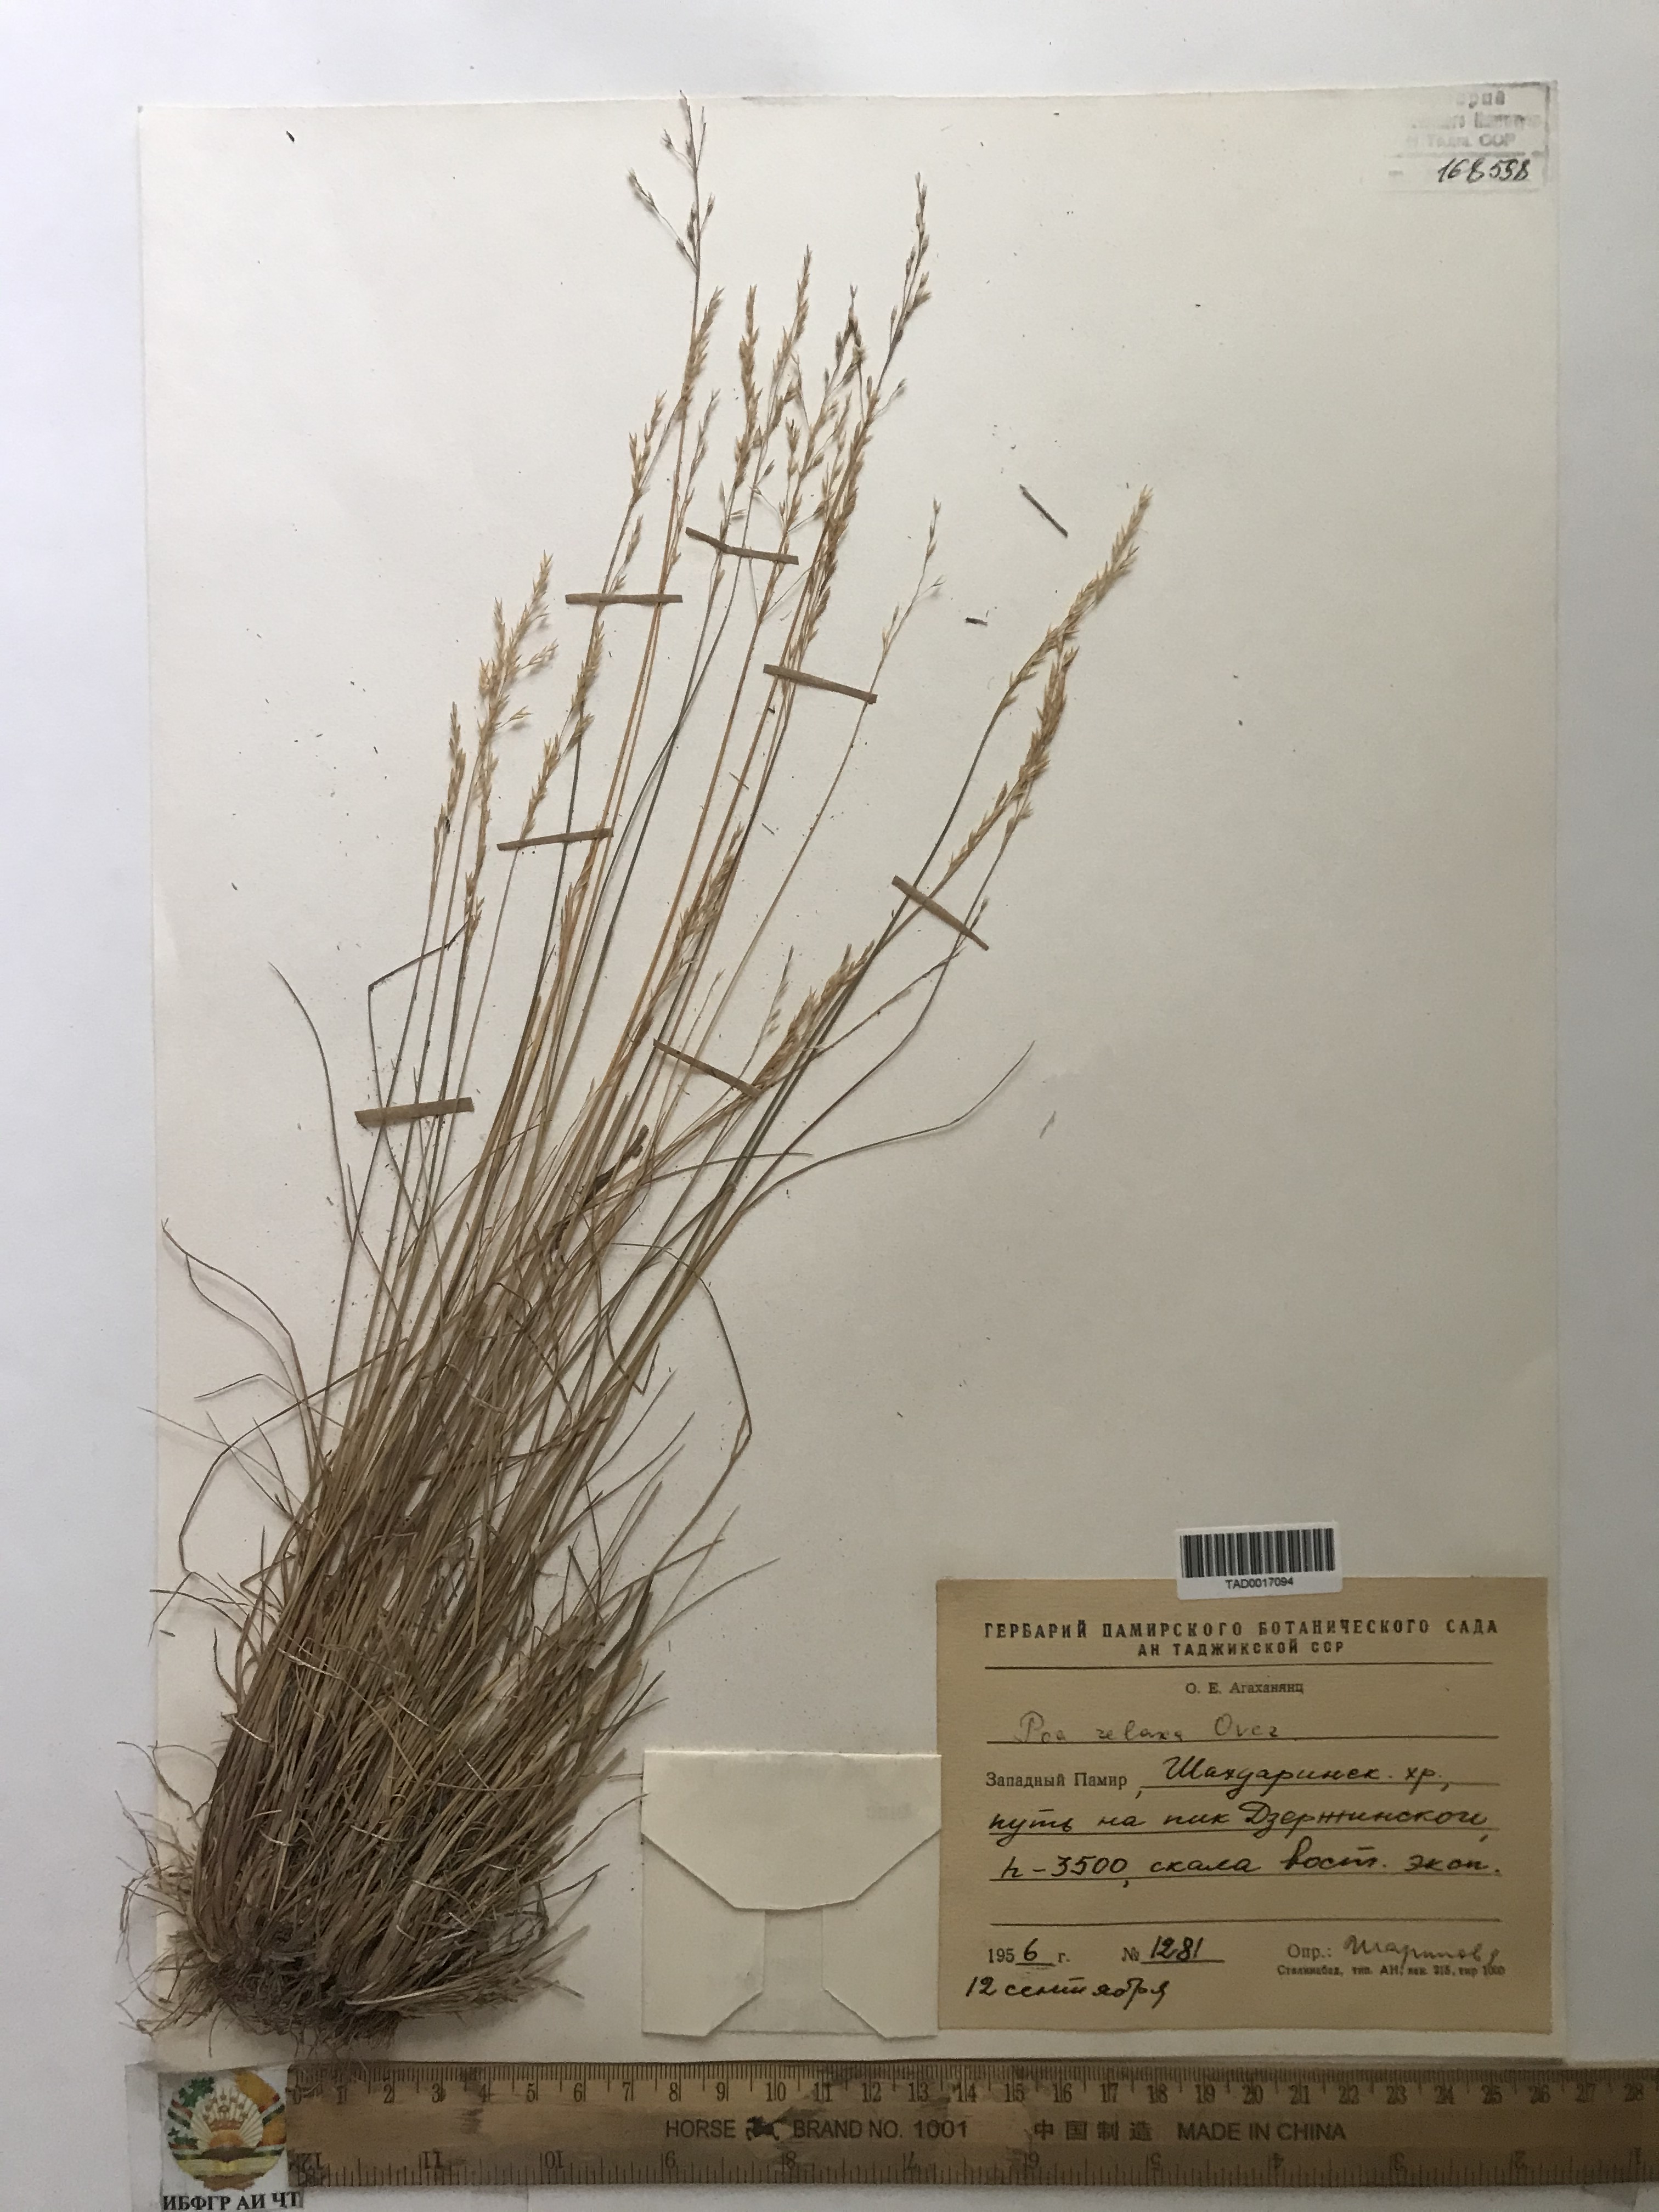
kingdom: Plantae
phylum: Tracheophyta
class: Liliopsida
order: Poales
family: Poaceae
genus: Poa
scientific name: Poa versicolor
